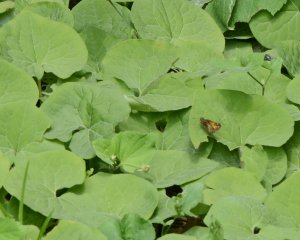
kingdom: Animalia
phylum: Arthropoda
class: Insecta
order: Lepidoptera
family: Hesperiidae
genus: Lon
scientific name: Lon hobomok
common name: Hobomok Skipper
